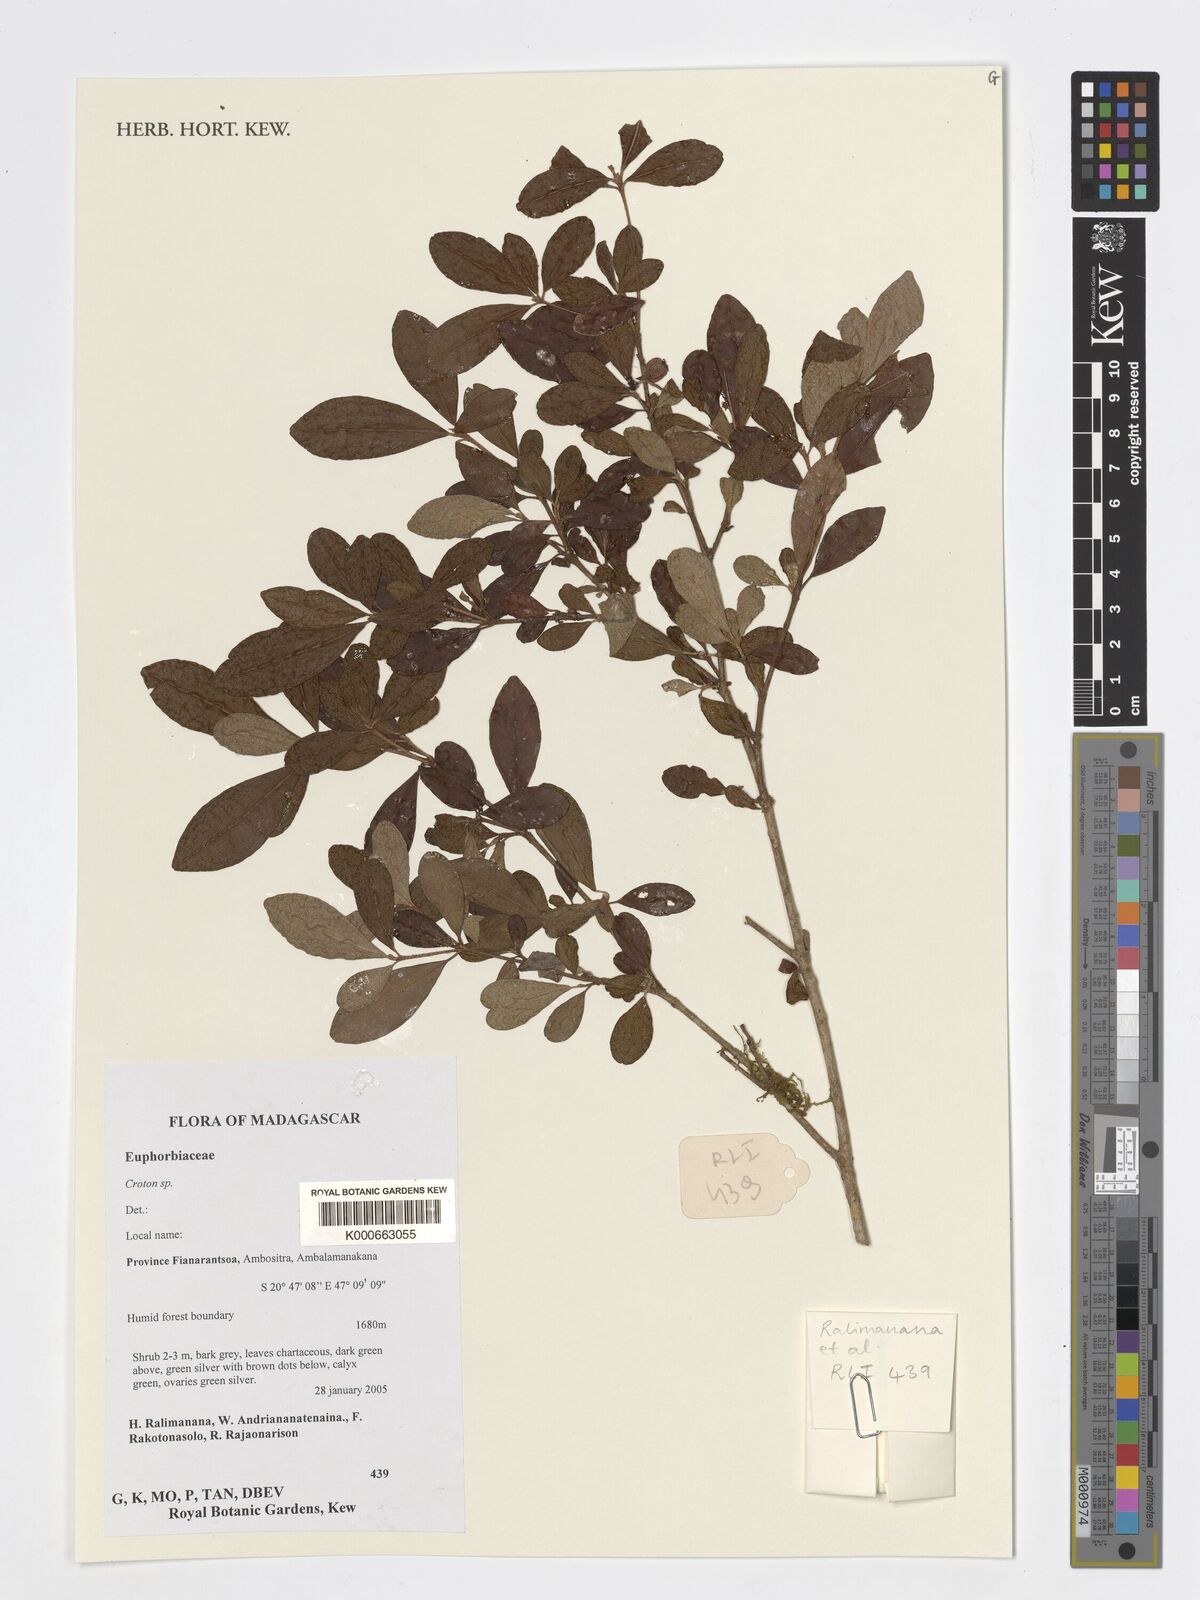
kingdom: Plantae
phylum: Tracheophyta
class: Magnoliopsida
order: Malpighiales
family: Euphorbiaceae
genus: Croton
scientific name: Croton
